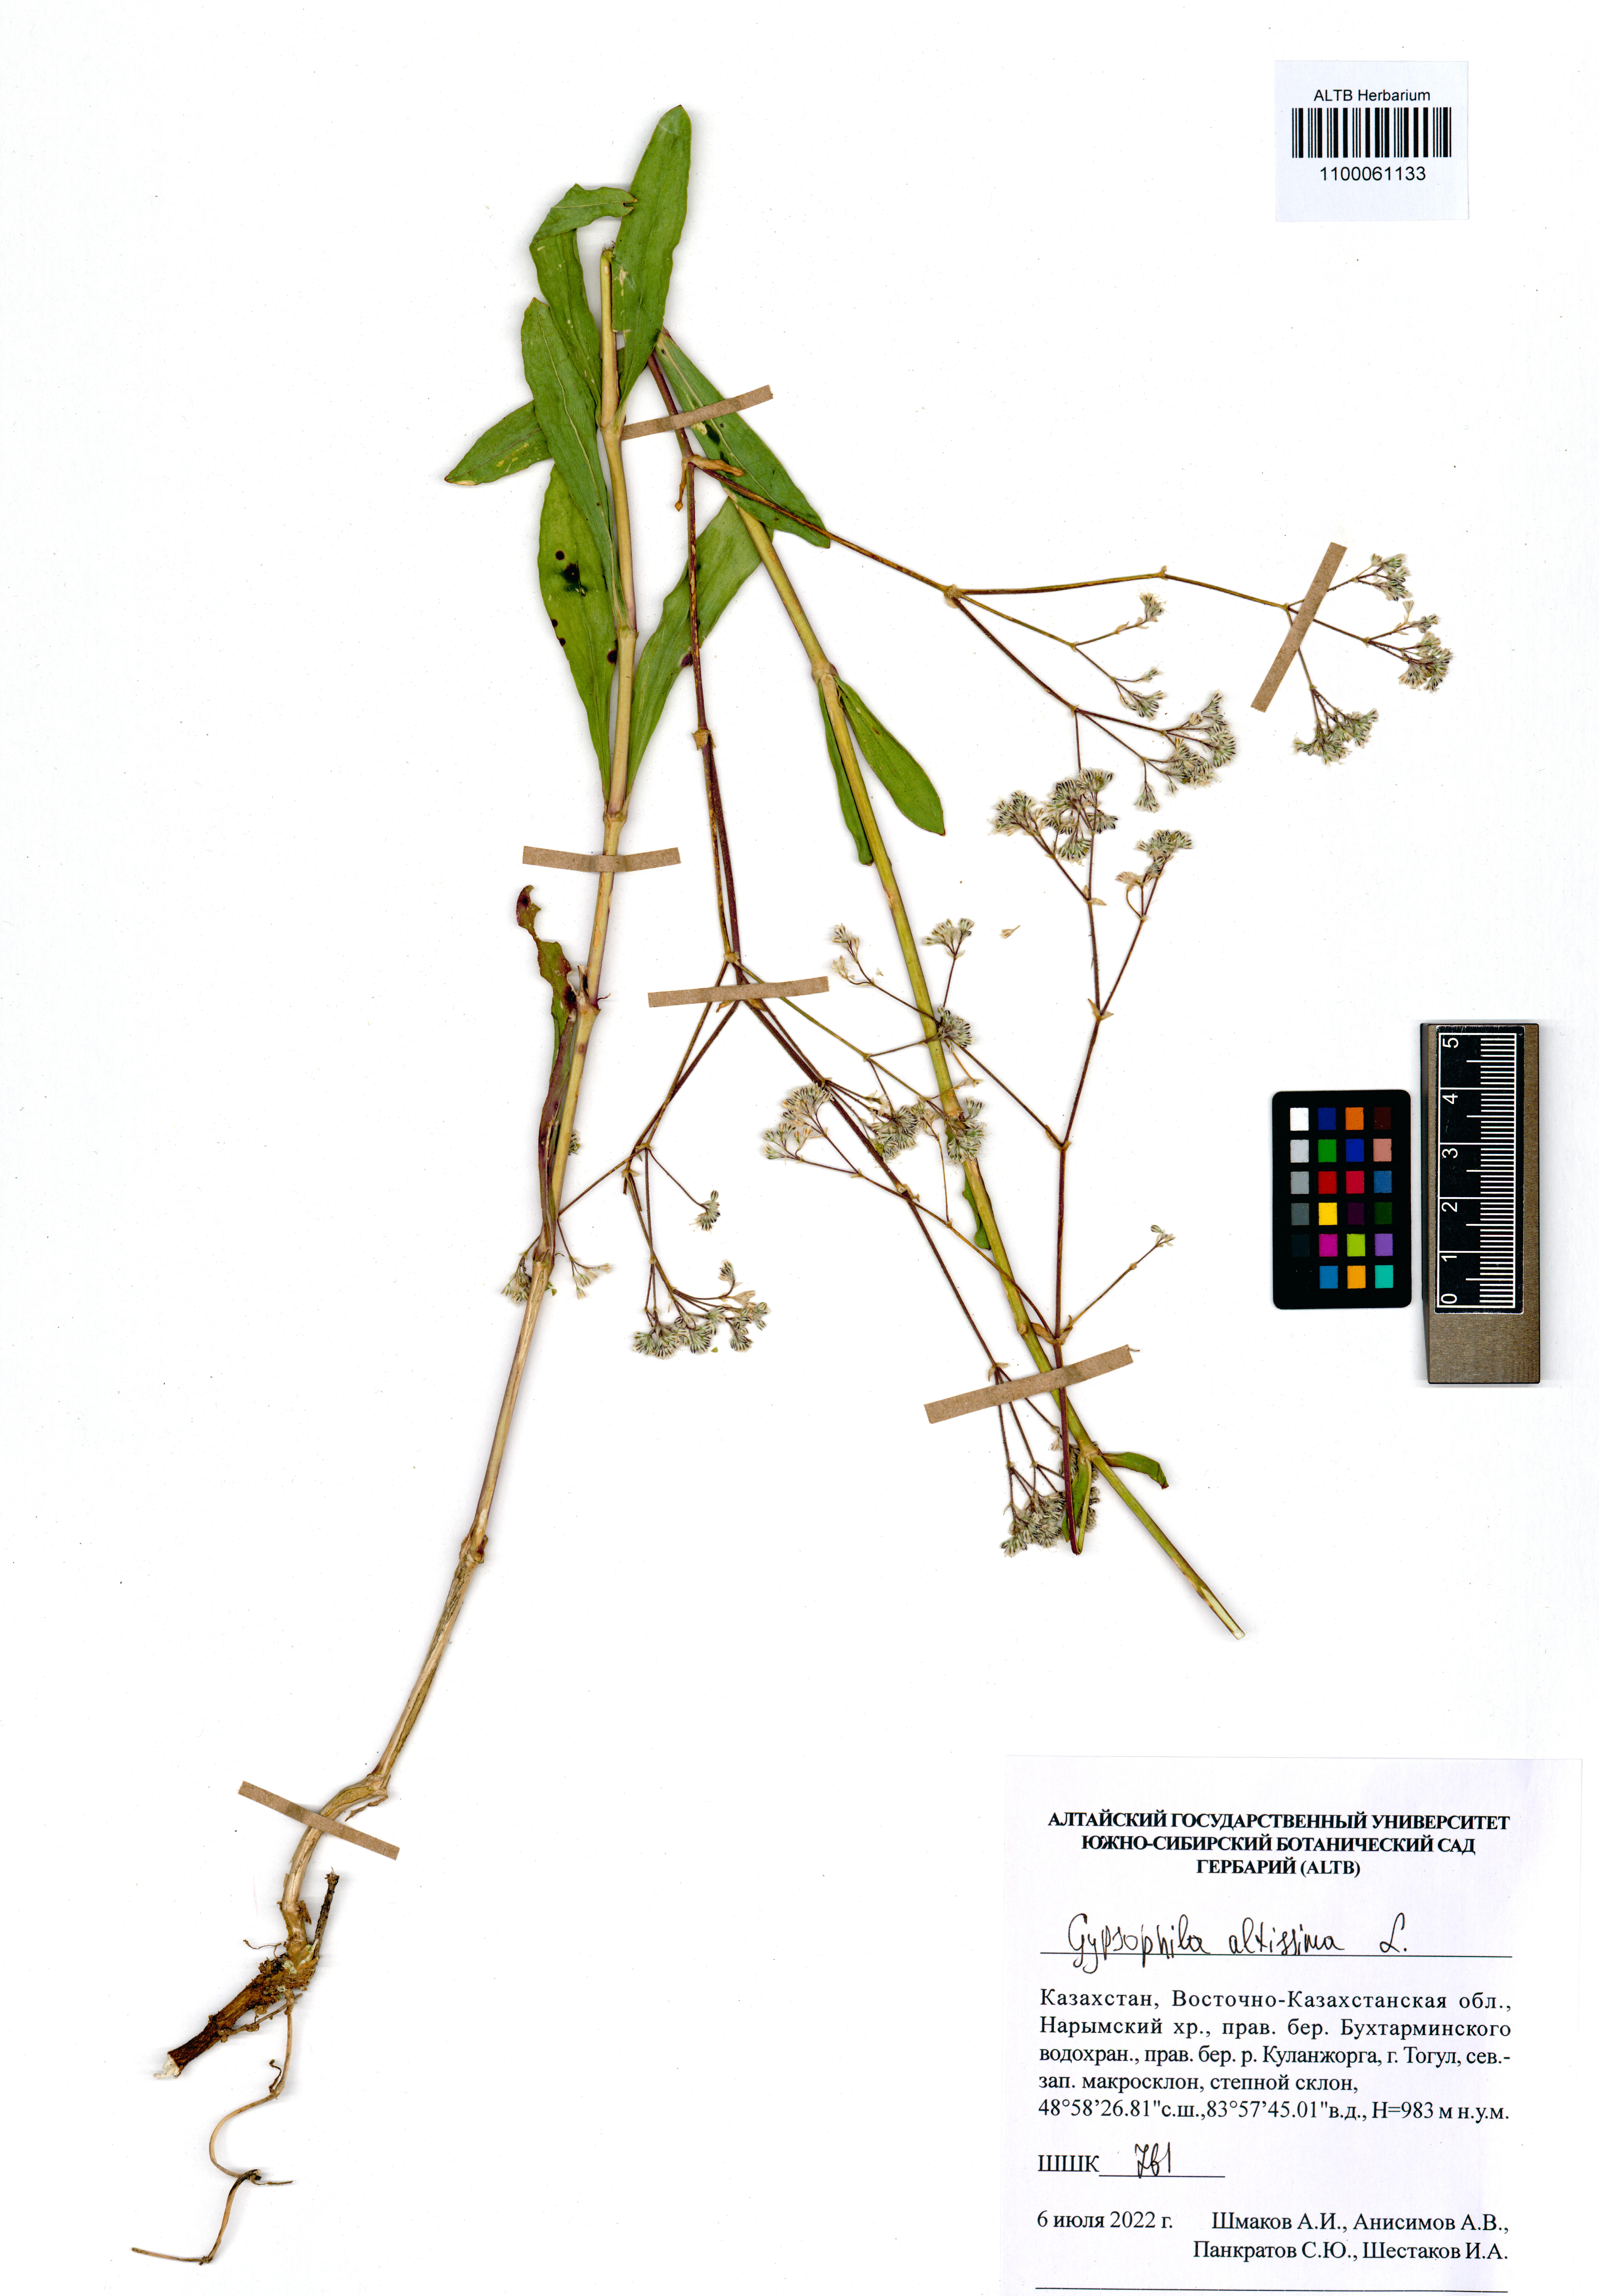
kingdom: Plantae
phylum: Tracheophyta
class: Magnoliopsida
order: Caryophyllales
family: Caryophyllaceae
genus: Gypsophila
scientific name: Gypsophila altissima
